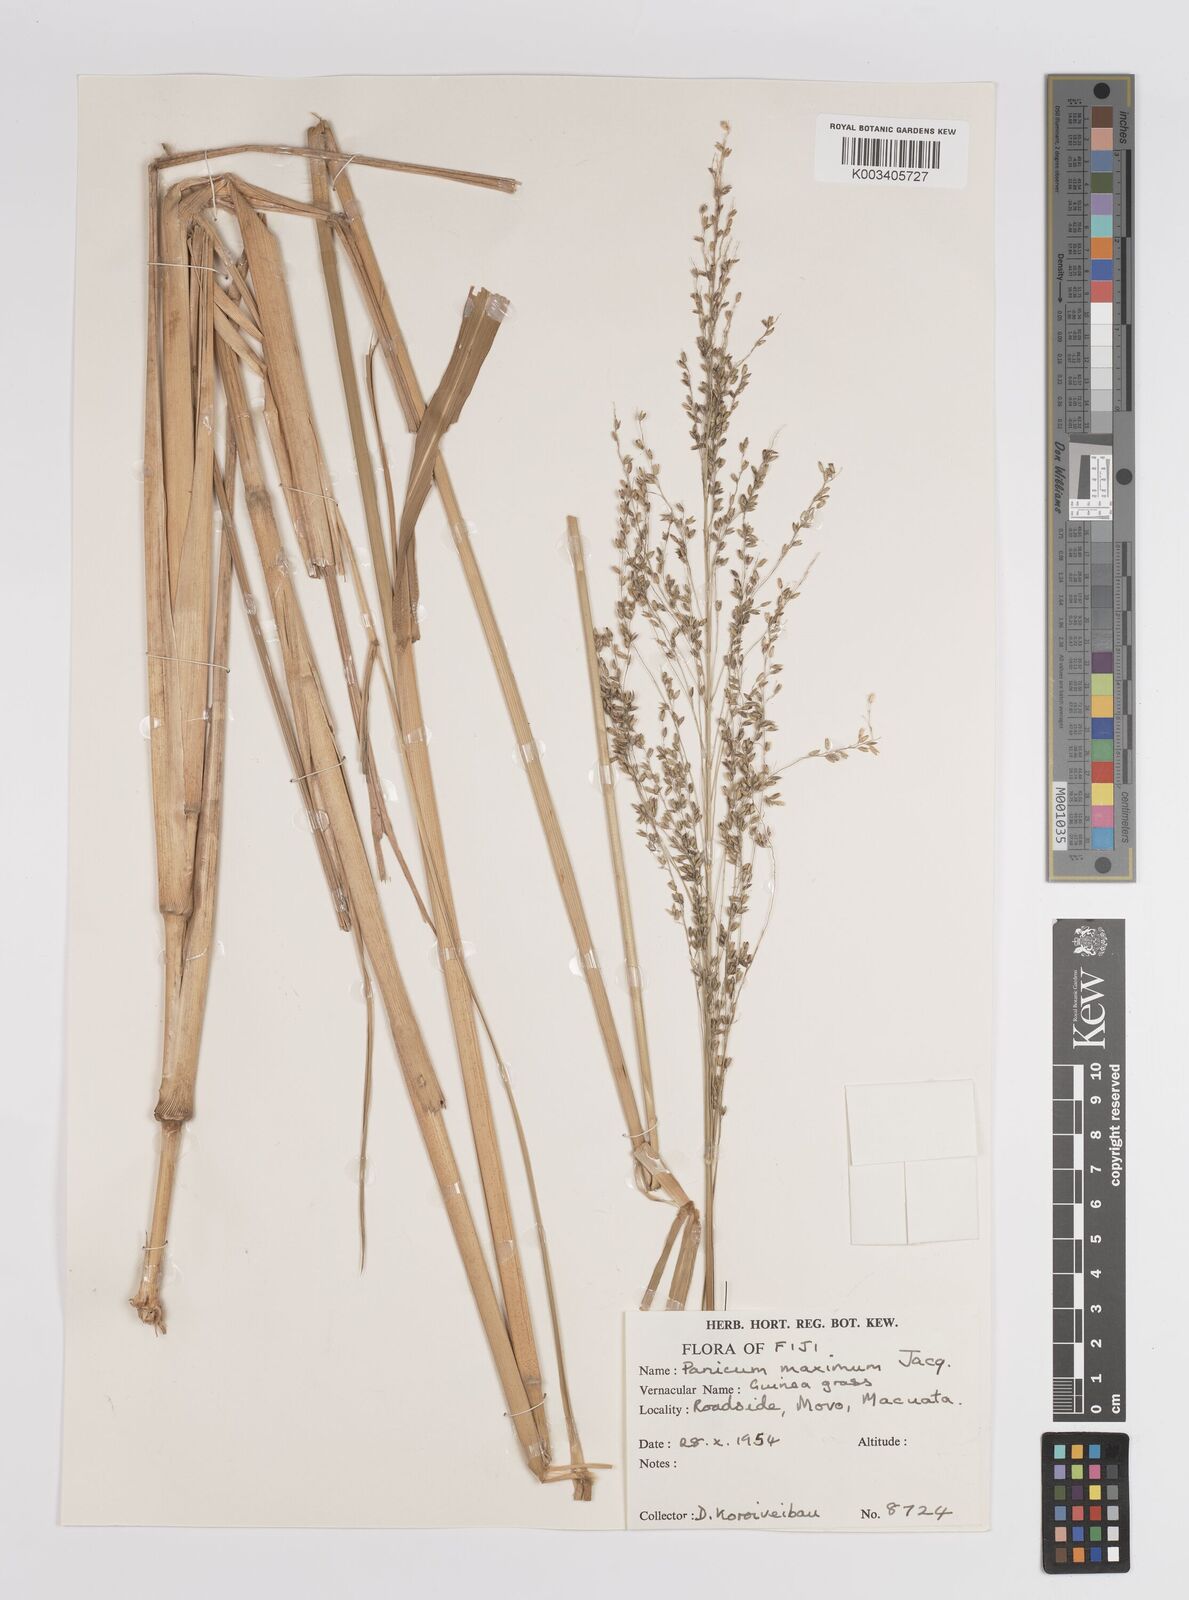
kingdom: Plantae
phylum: Tracheophyta
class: Liliopsida
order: Poales
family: Poaceae
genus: Megathyrsus
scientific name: Megathyrsus maximus
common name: Guineagrass
